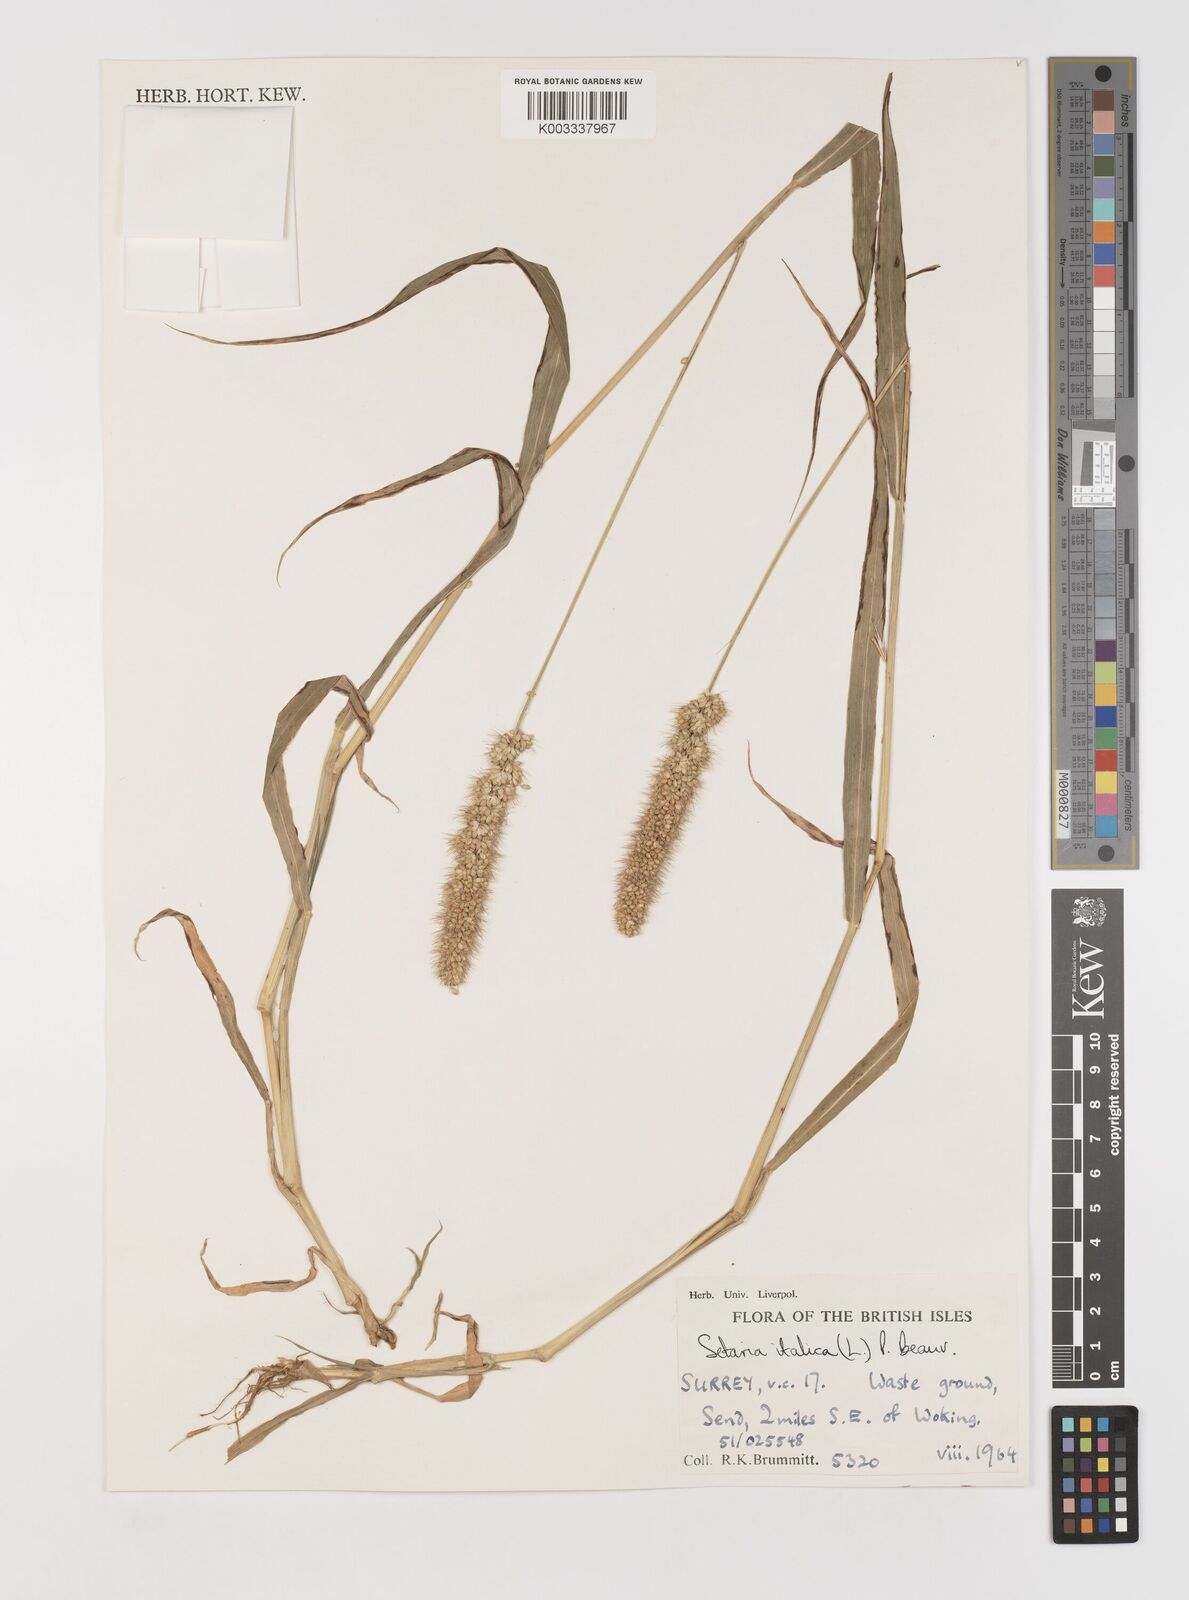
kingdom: Plantae
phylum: Tracheophyta
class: Liliopsida
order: Poales
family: Poaceae
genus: Setaria
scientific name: Setaria italica
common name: Foxtail bristle-grass
